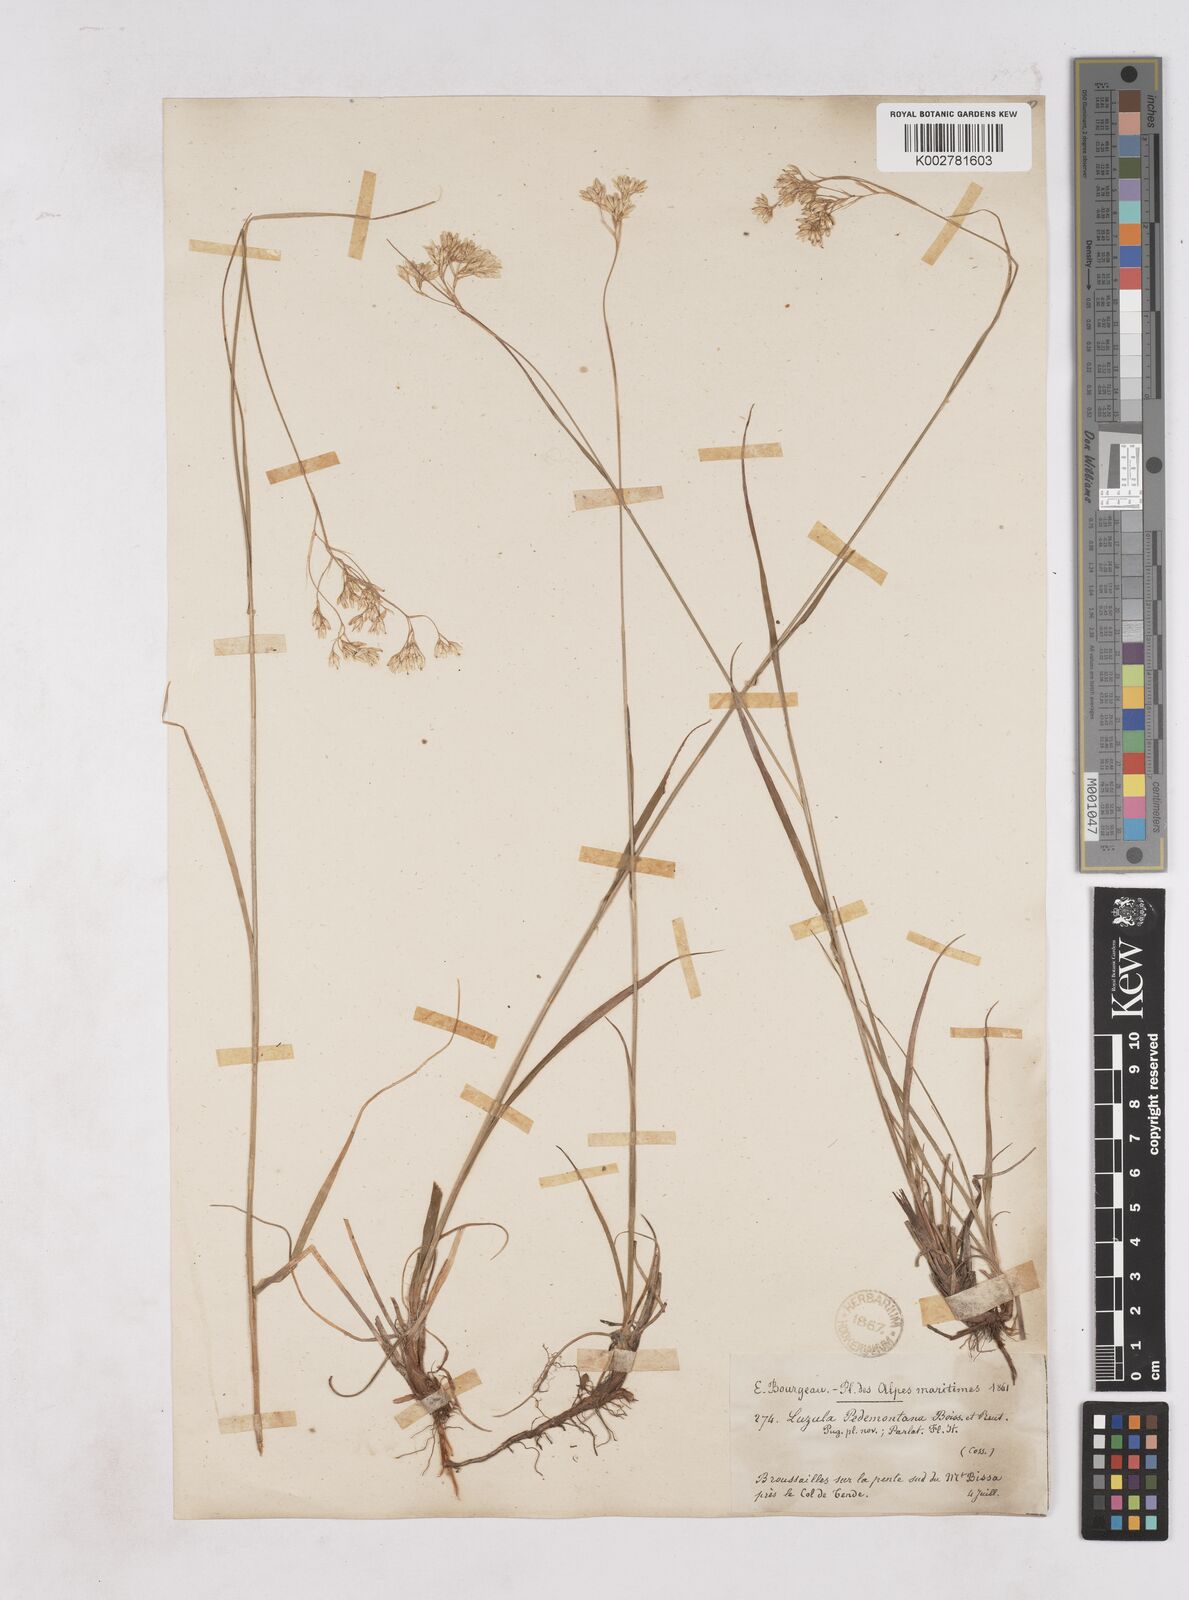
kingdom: Plantae
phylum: Tracheophyta
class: Liliopsida
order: Poales
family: Juncaceae
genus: Luzula
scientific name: Luzula pedemontana
